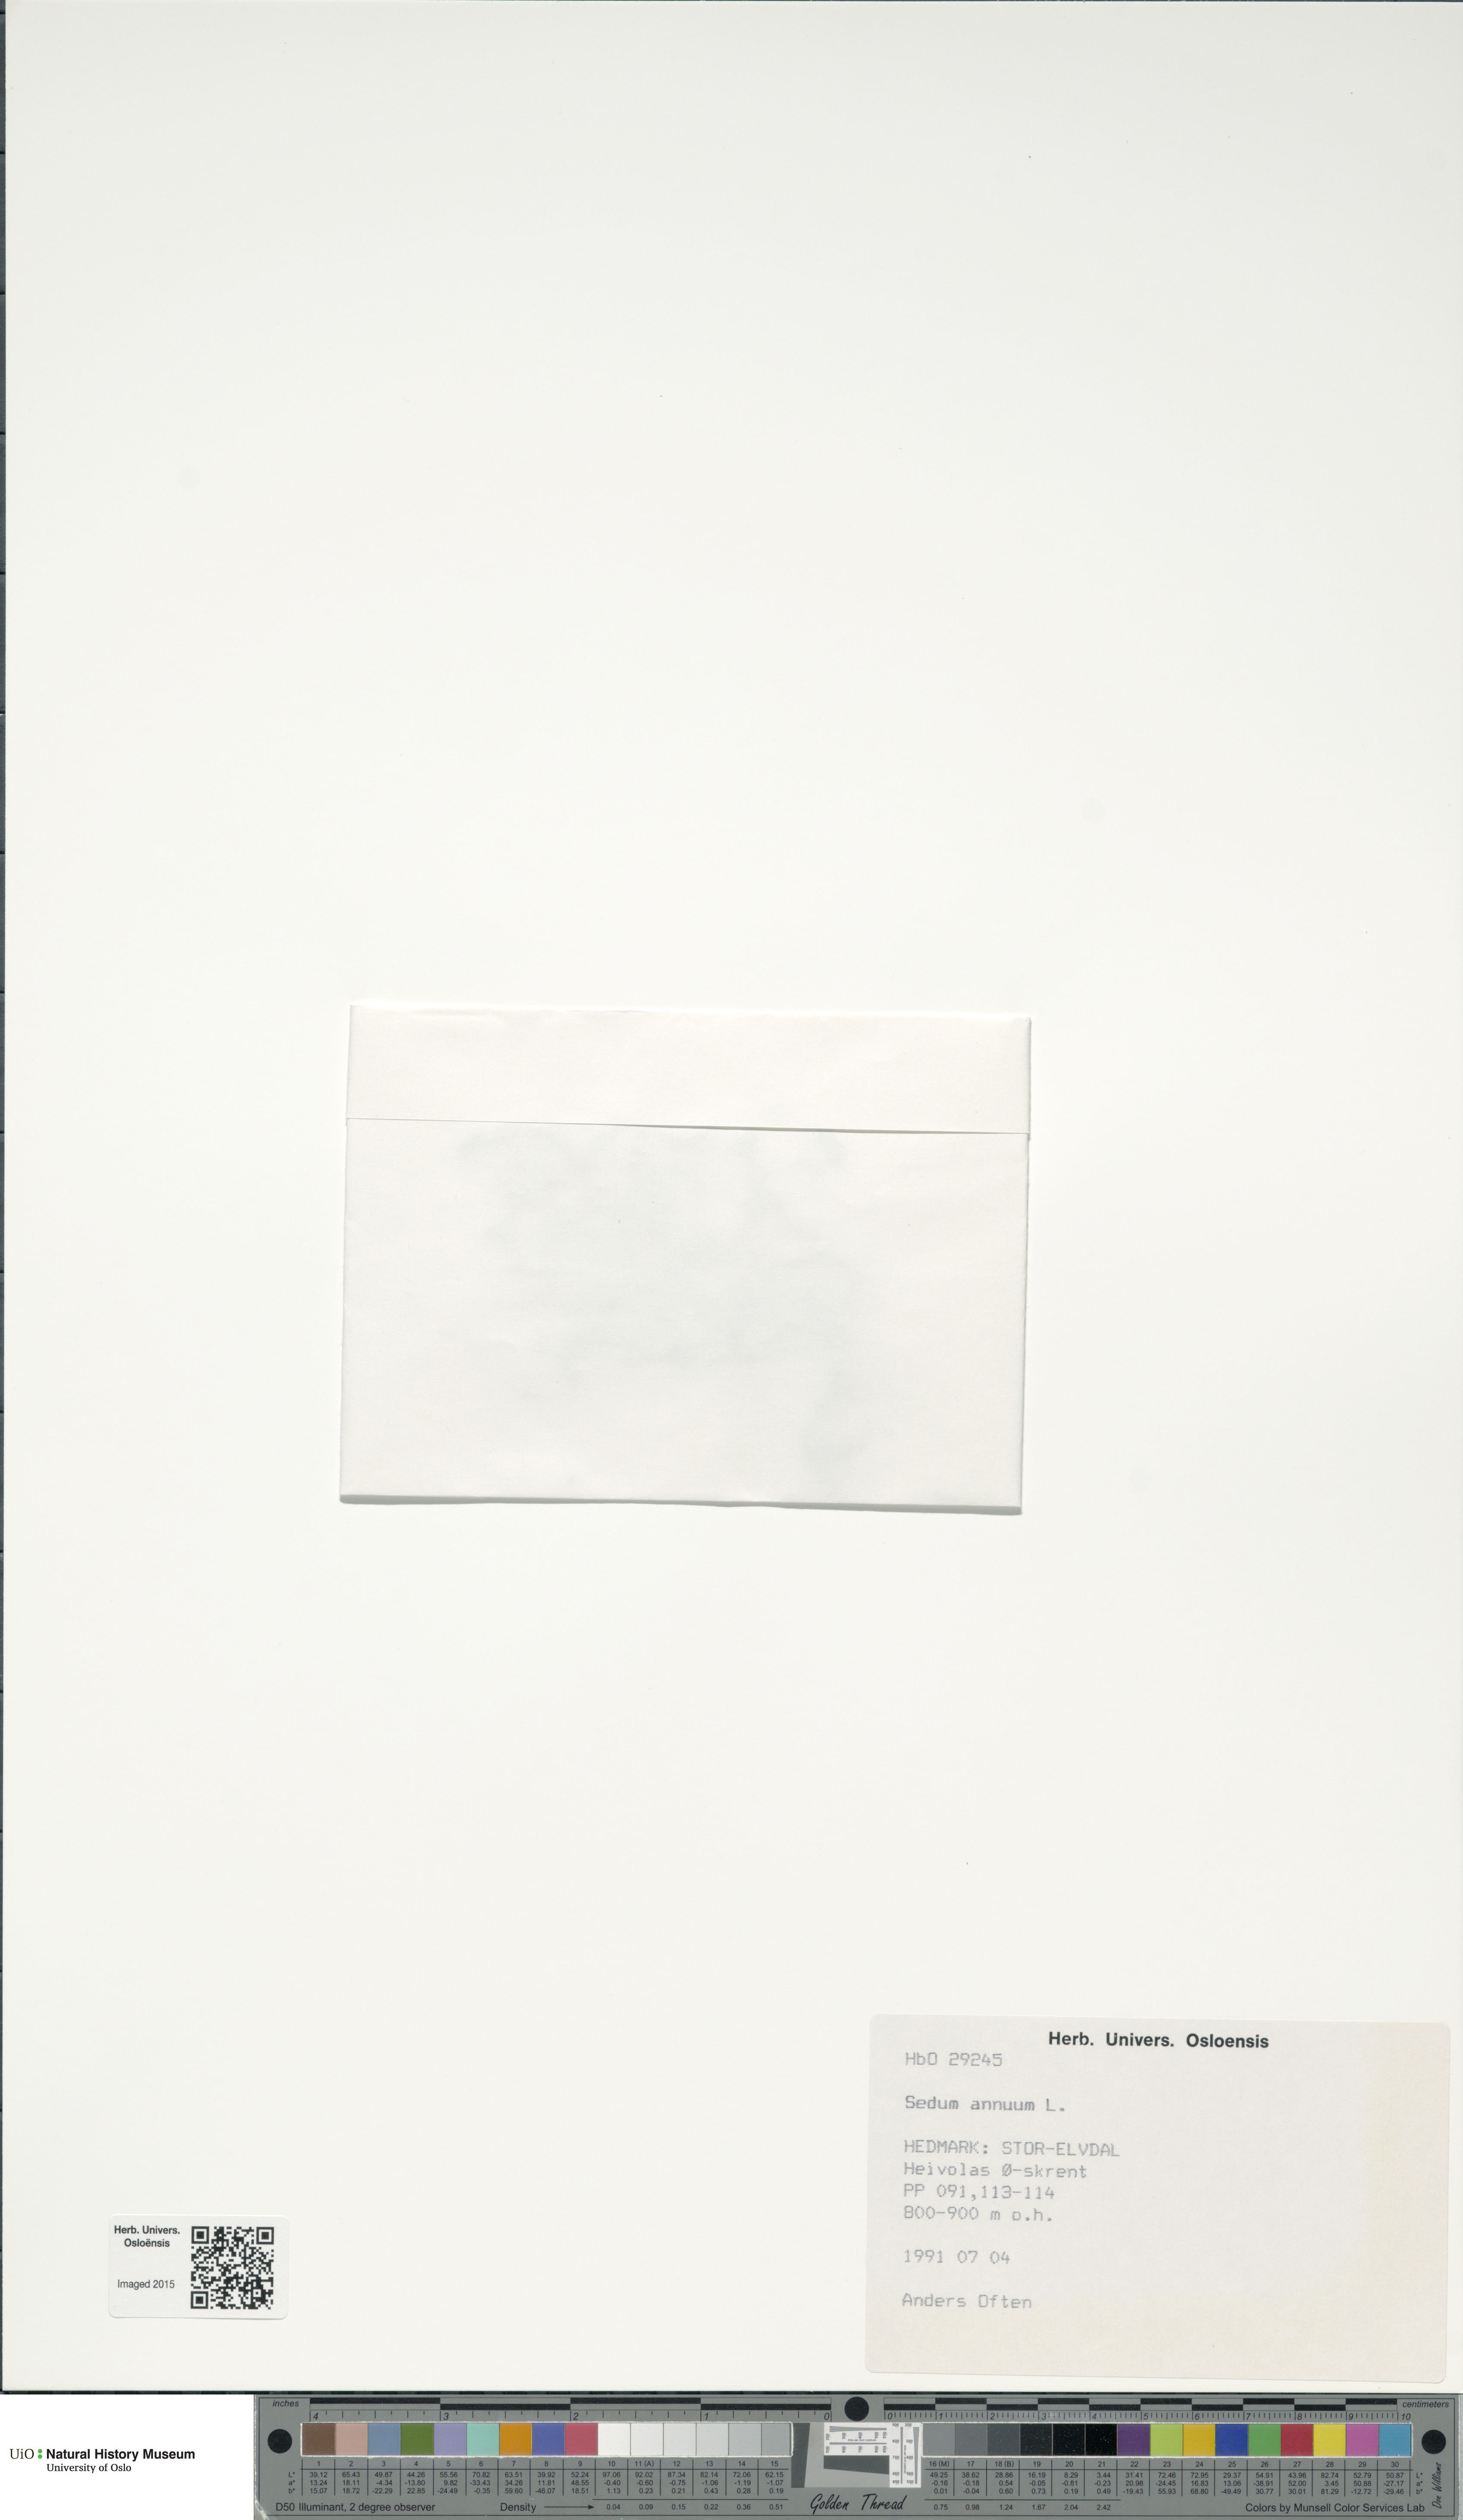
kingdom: Plantae
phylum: Tracheophyta
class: Magnoliopsida
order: Saxifragales
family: Crassulaceae
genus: Sedum
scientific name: Sedum annuum
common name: Annual stonecrop
